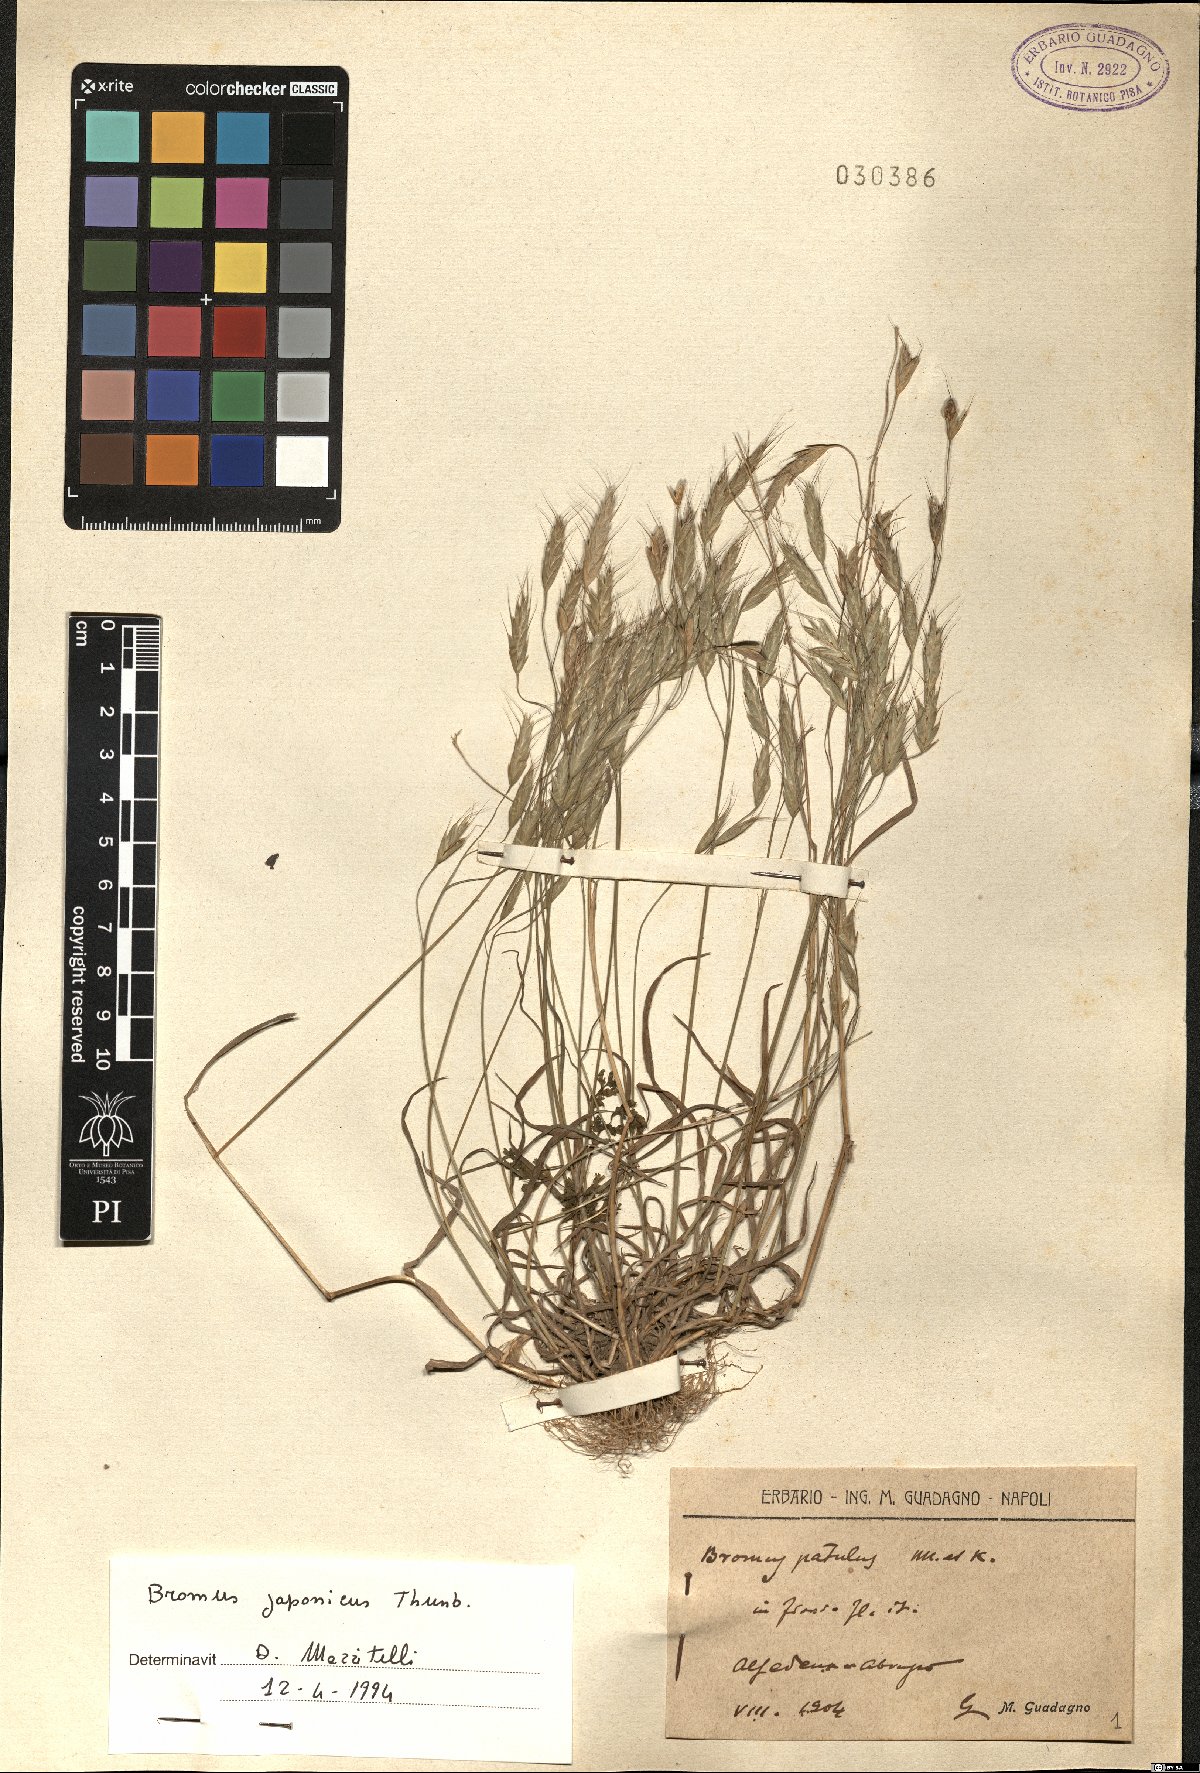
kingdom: Plantae
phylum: Tracheophyta
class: Liliopsida
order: Poales
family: Poaceae
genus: Bromus
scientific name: Bromus japonicus
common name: Japanese brome
